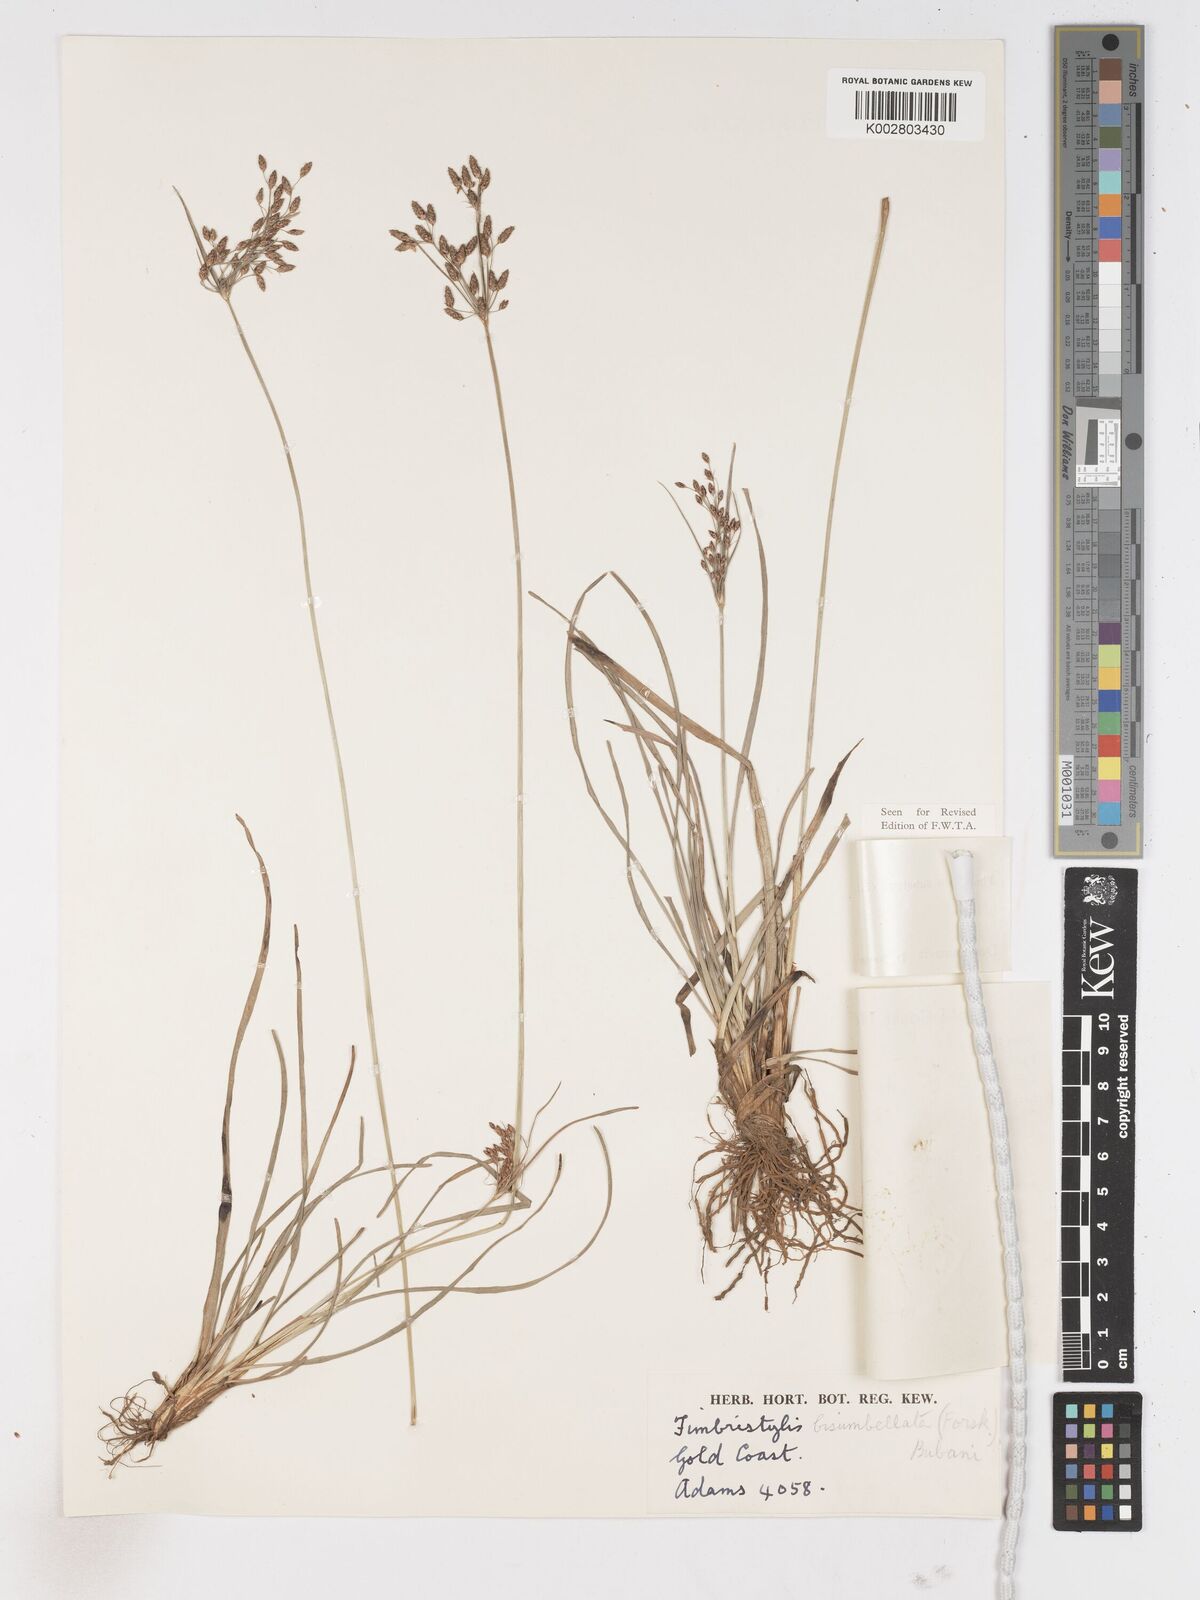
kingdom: Plantae
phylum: Tracheophyta
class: Liliopsida
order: Poales
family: Cyperaceae
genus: Fimbristylis
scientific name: Fimbristylis dichotoma
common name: Forked fimbry
